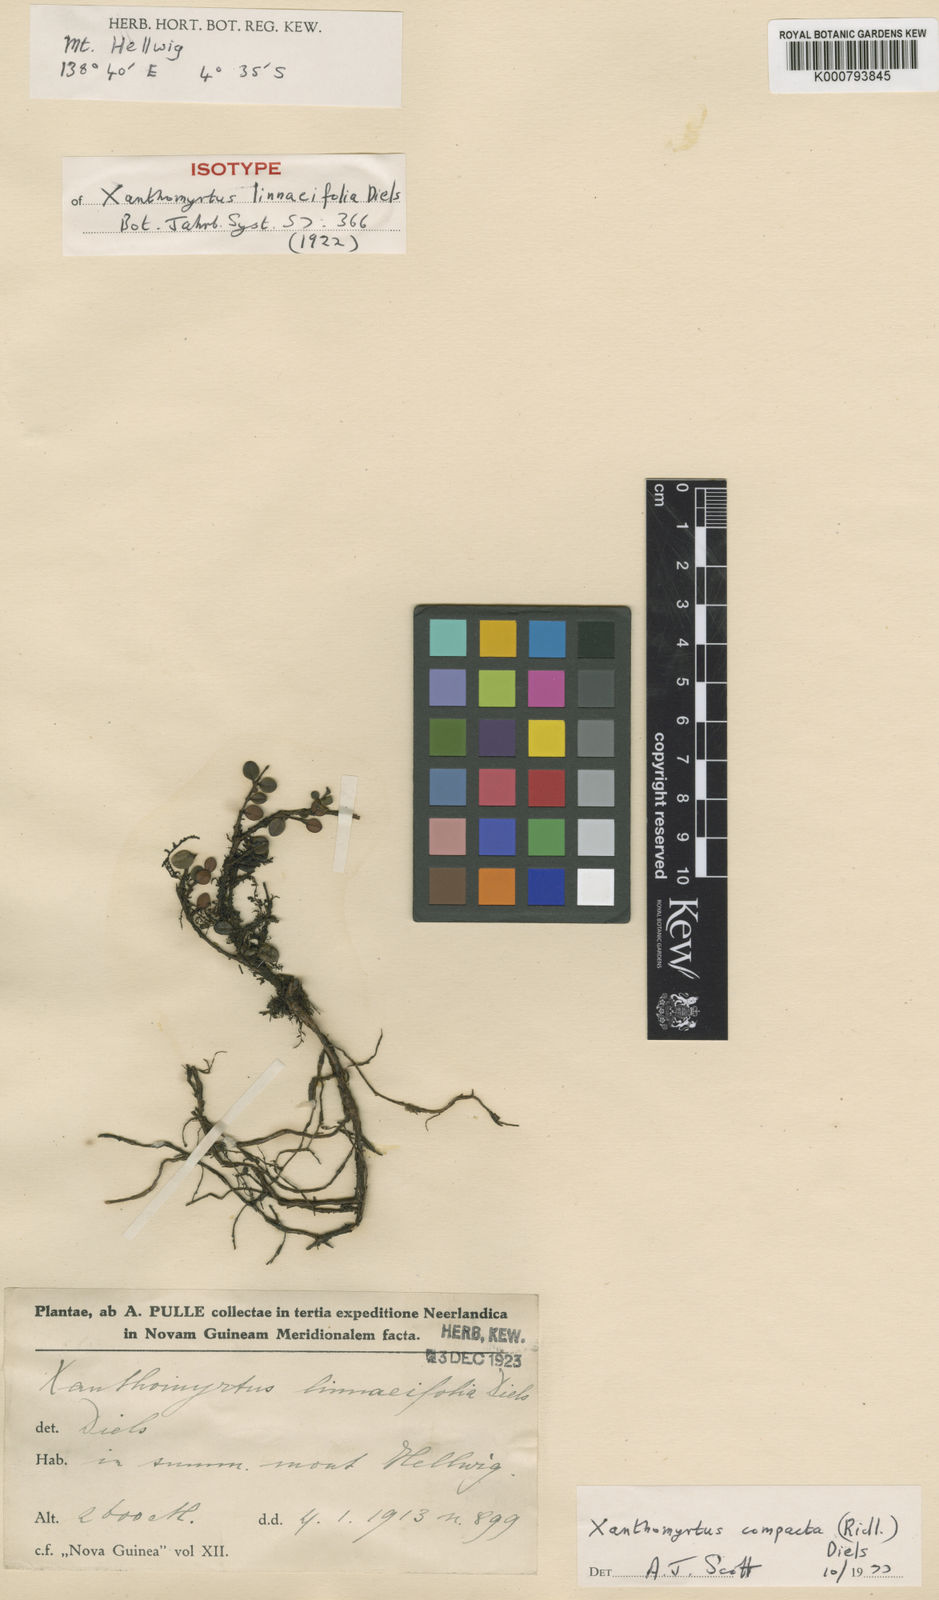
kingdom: Plantae
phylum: Tracheophyta
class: Magnoliopsida
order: Myrtales
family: Myrtaceae
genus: Xanthomyrtus
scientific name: Xanthomyrtus compacta
